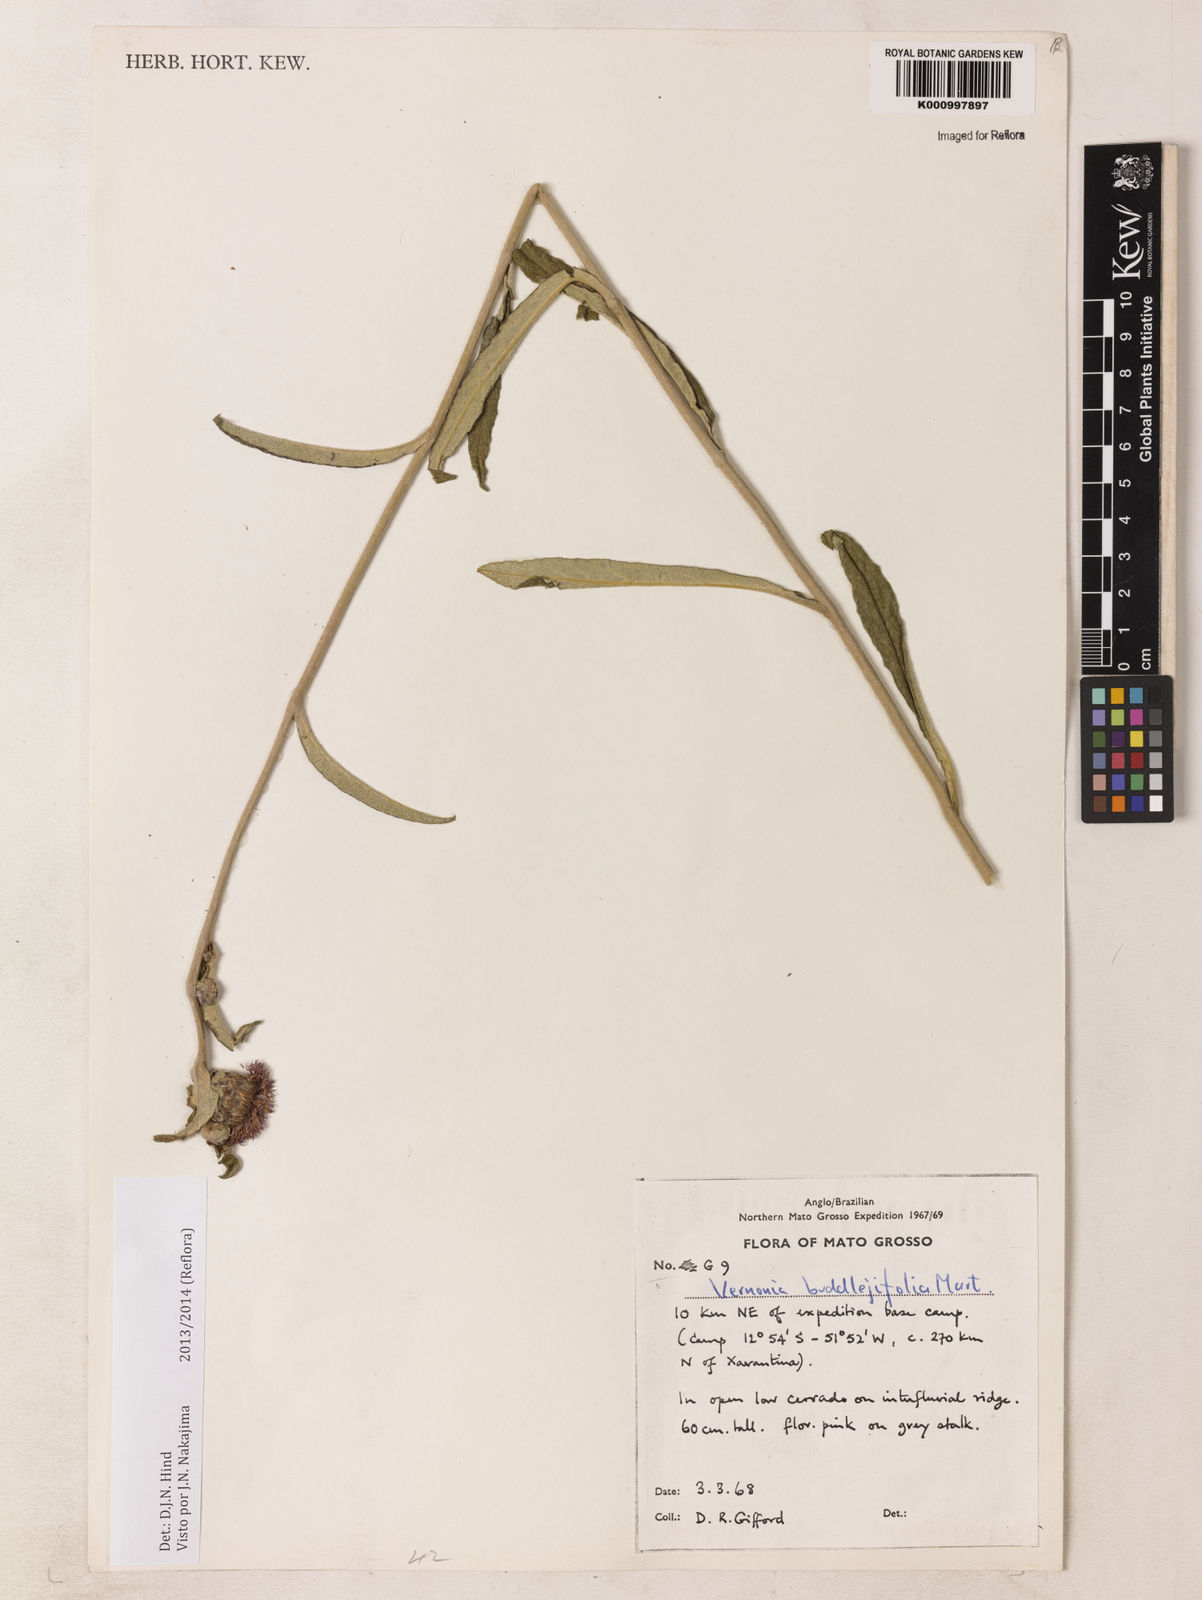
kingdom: Plantae
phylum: Tracheophyta
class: Magnoliopsida
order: Asterales
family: Asteraceae
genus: Lessingianthus
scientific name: Lessingianthus buddlejifolius
